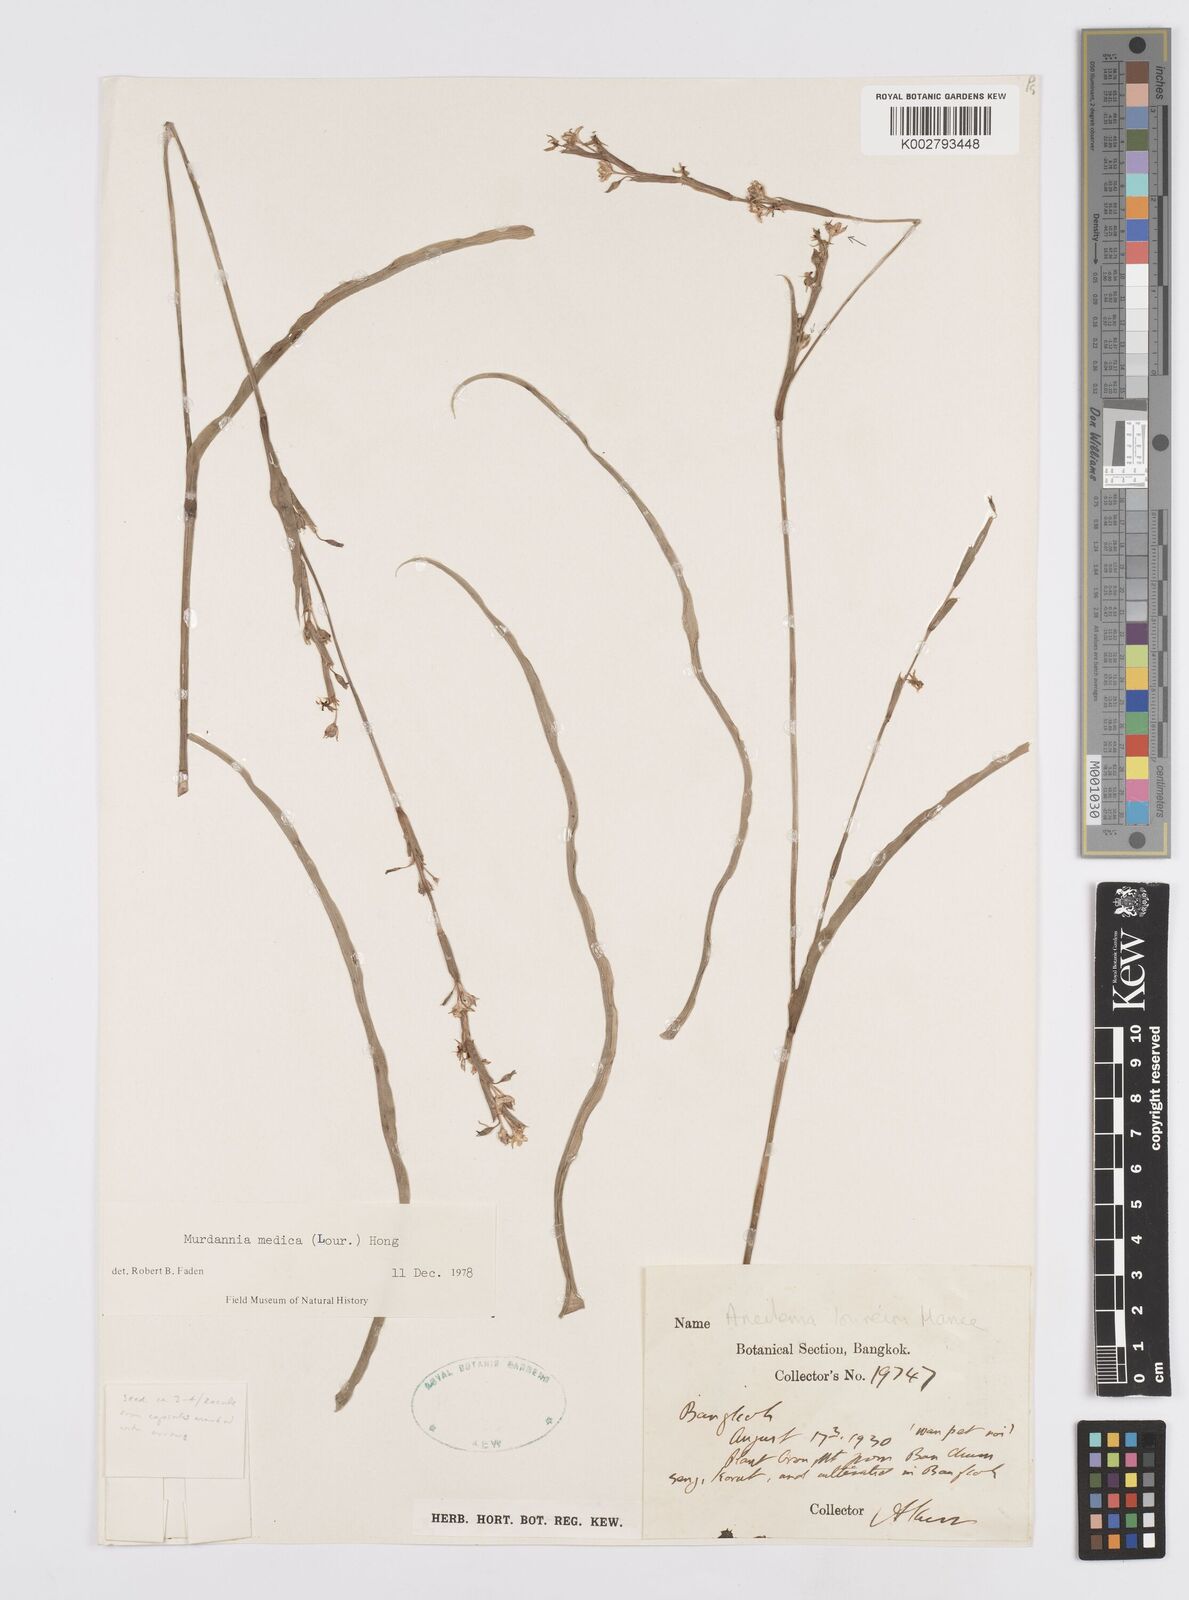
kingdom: Plantae
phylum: Tracheophyta
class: Liliopsida
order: Commelinales
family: Commelinaceae
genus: Murdannia
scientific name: Murdannia medica
